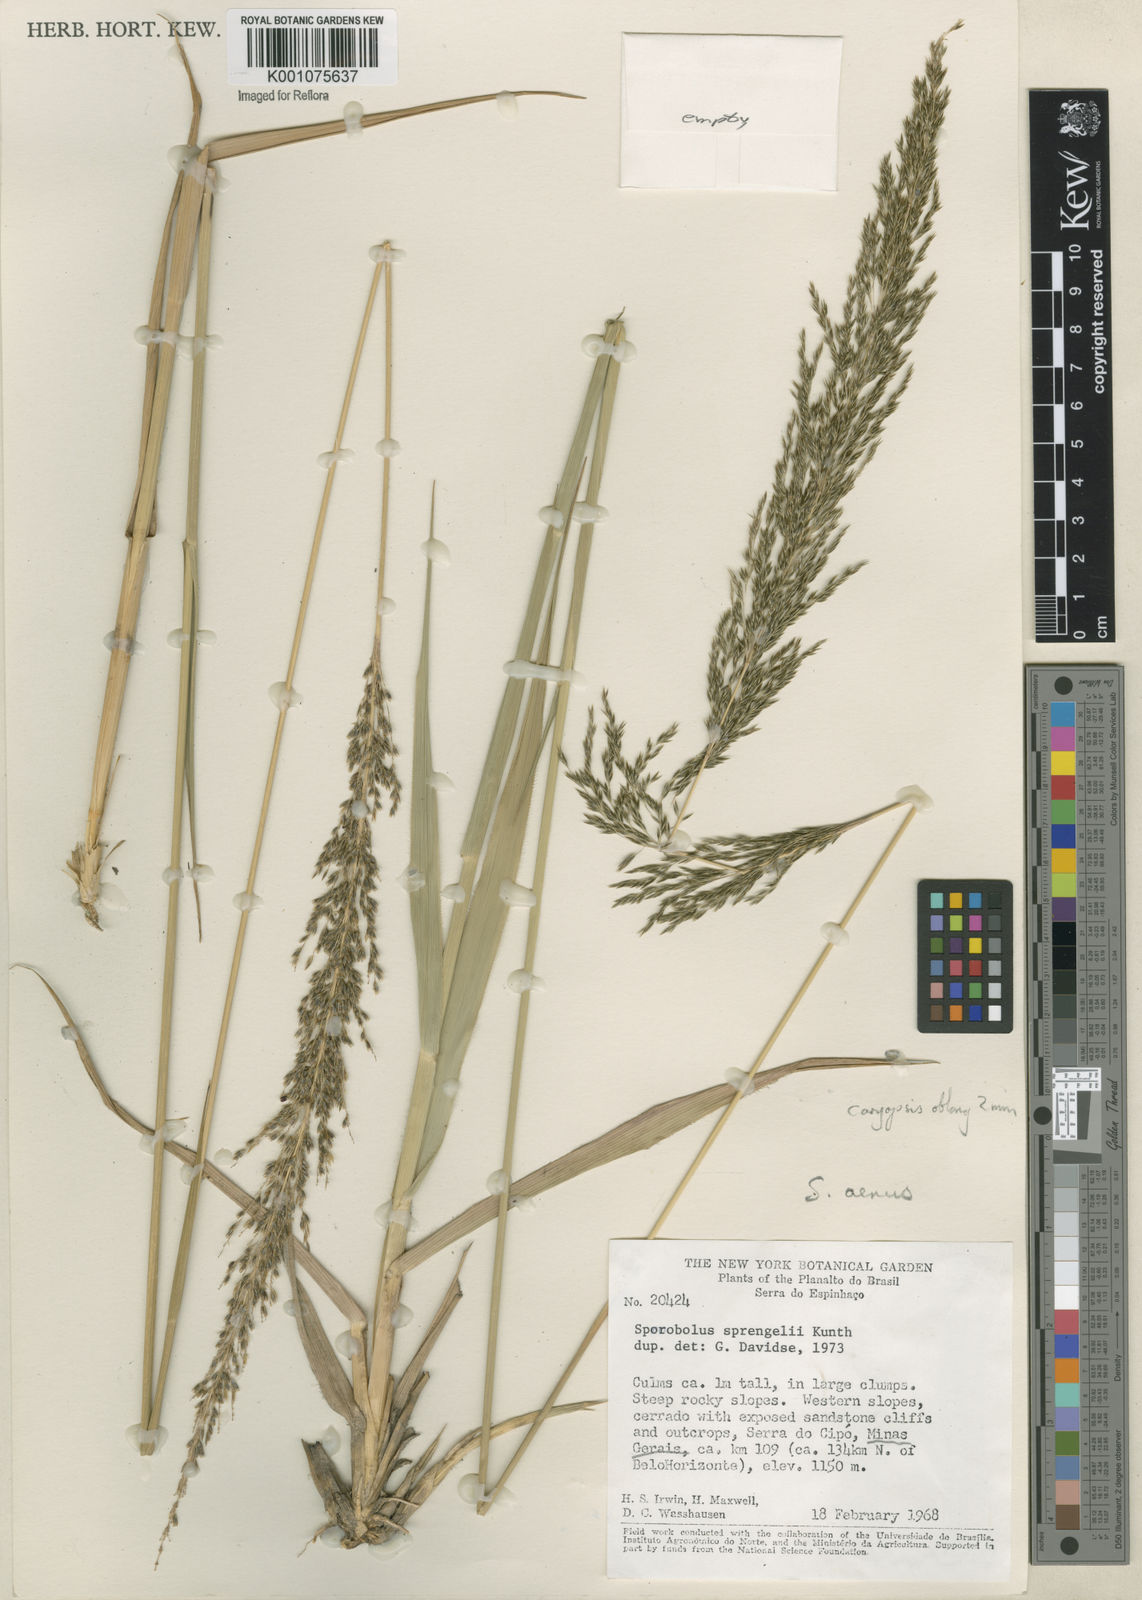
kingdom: Plantae
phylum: Tracheophyta
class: Liliopsida
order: Poales
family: Poaceae
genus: Sporobolus
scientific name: Sporobolus aeneus
